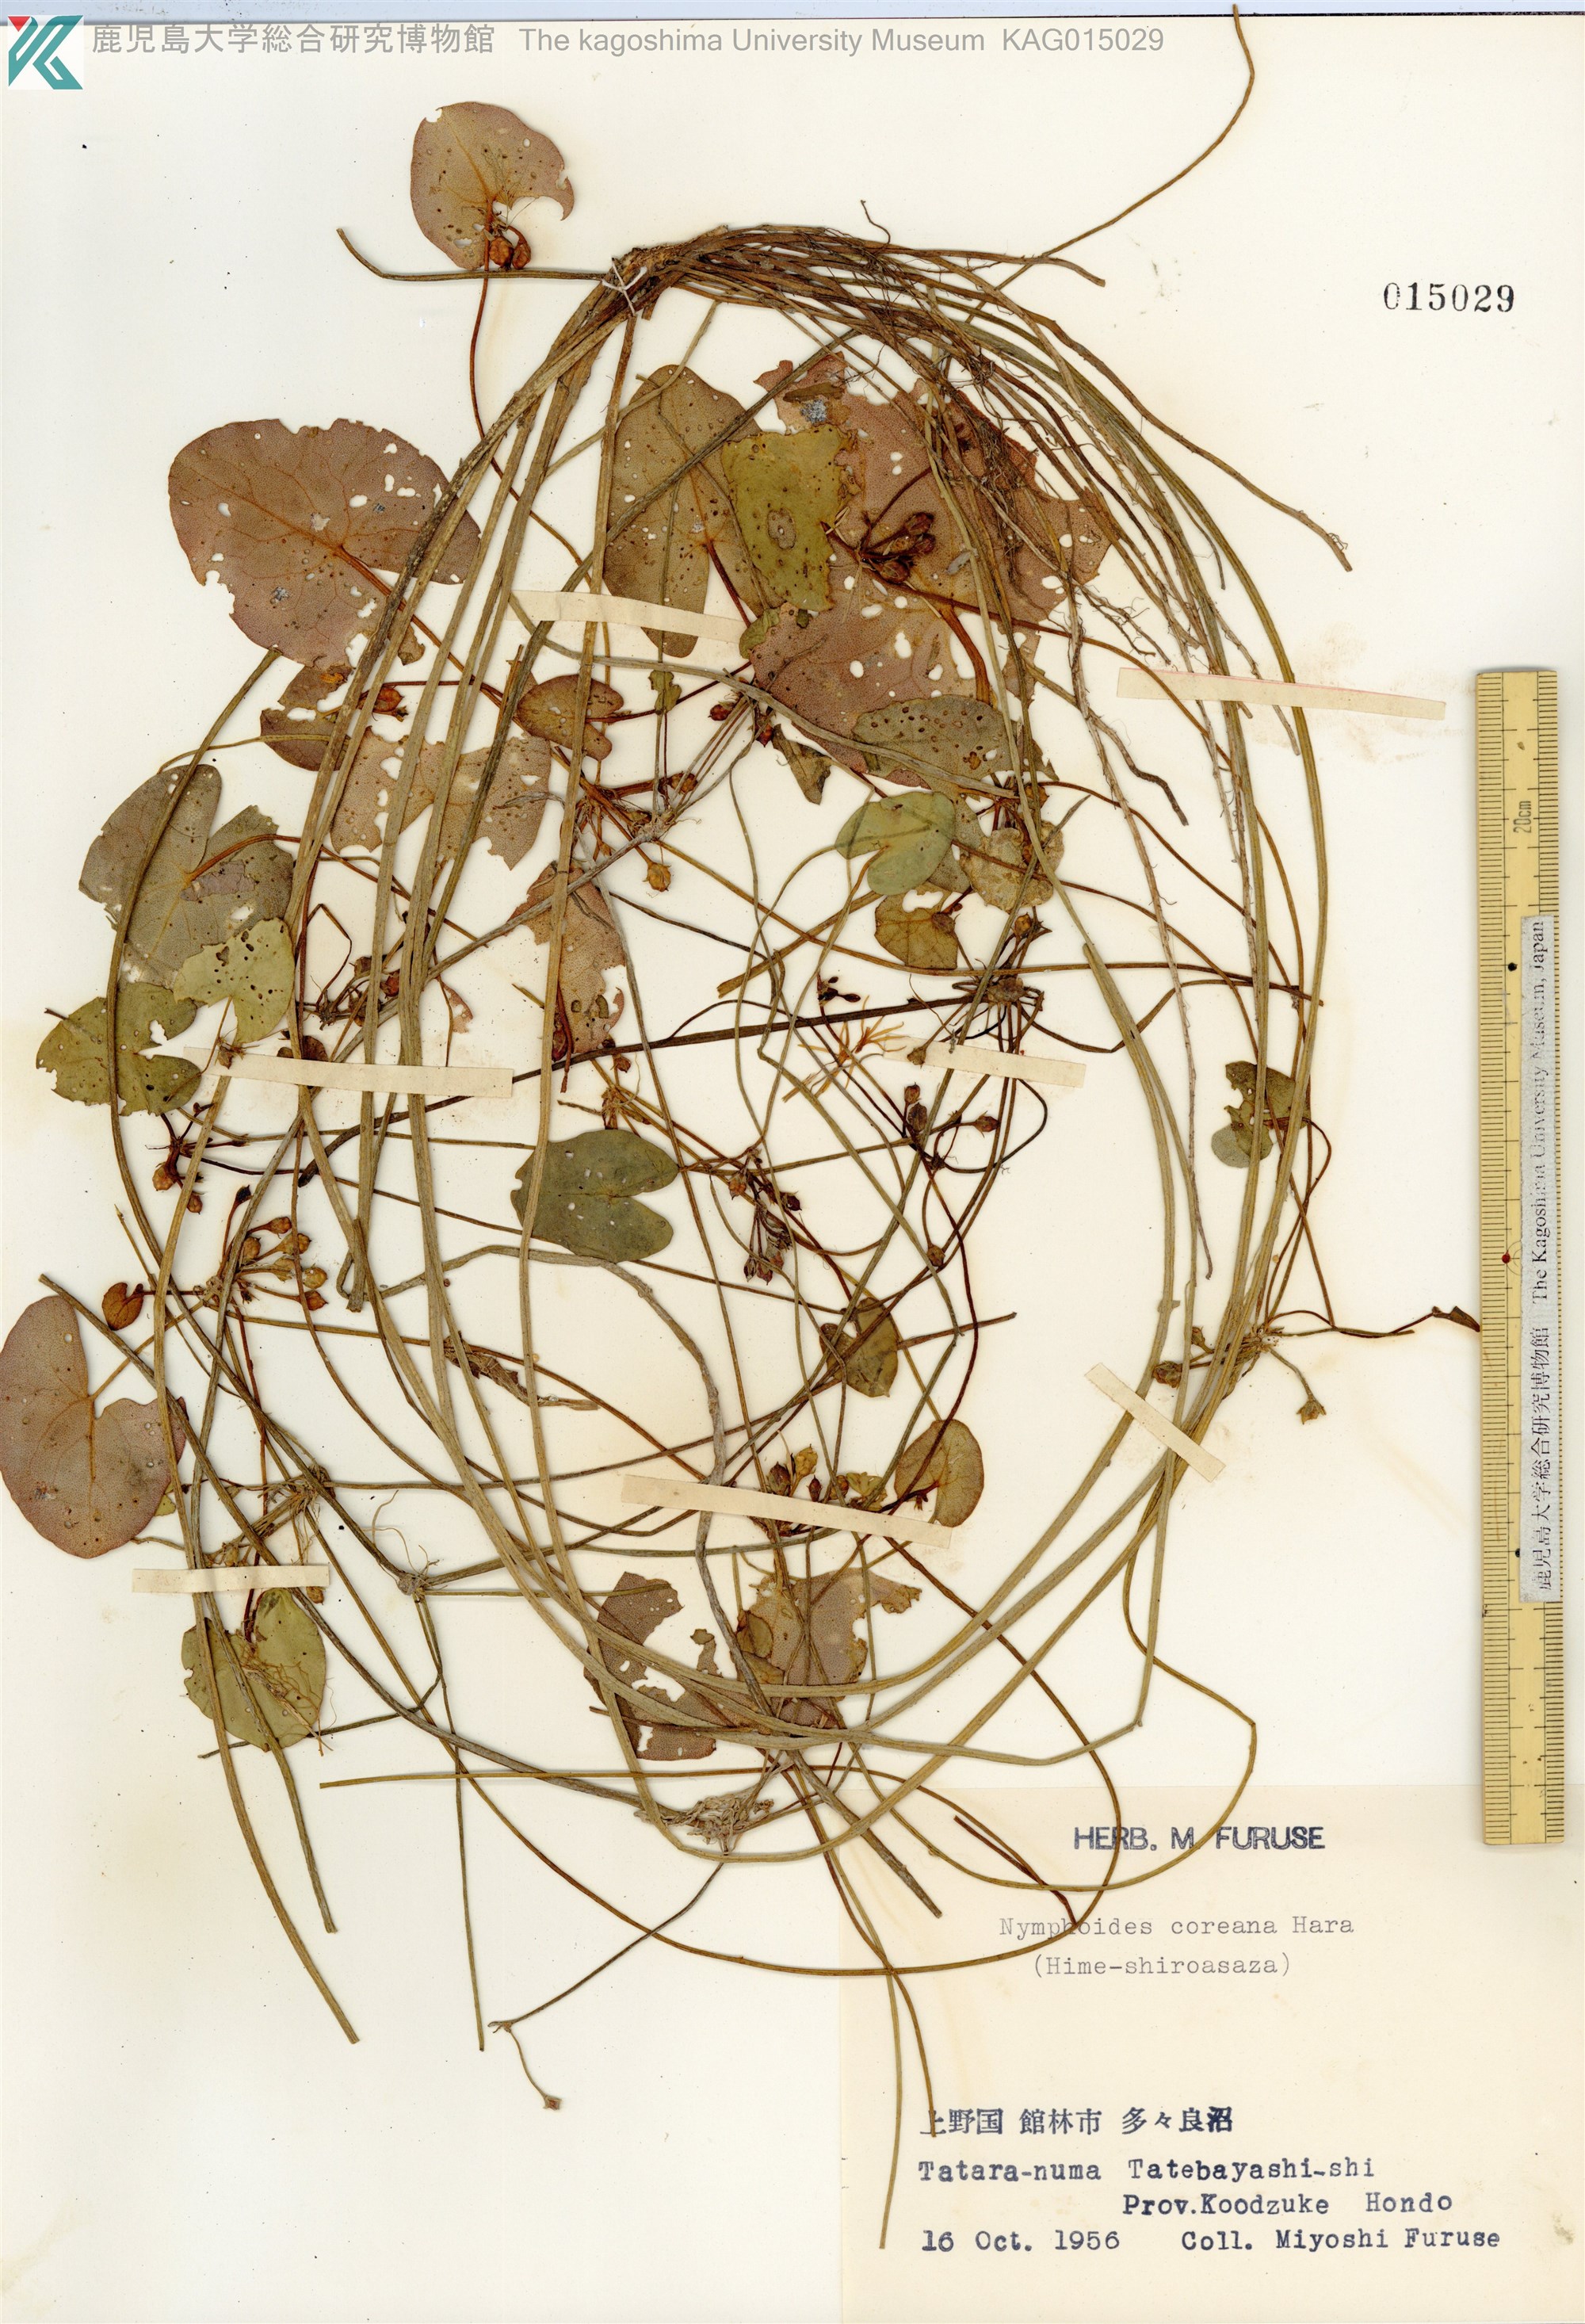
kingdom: Plantae
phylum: Tracheophyta
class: Magnoliopsida
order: Asterales
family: Menyanthaceae
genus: Nymphoides
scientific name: Nymphoides coreana
